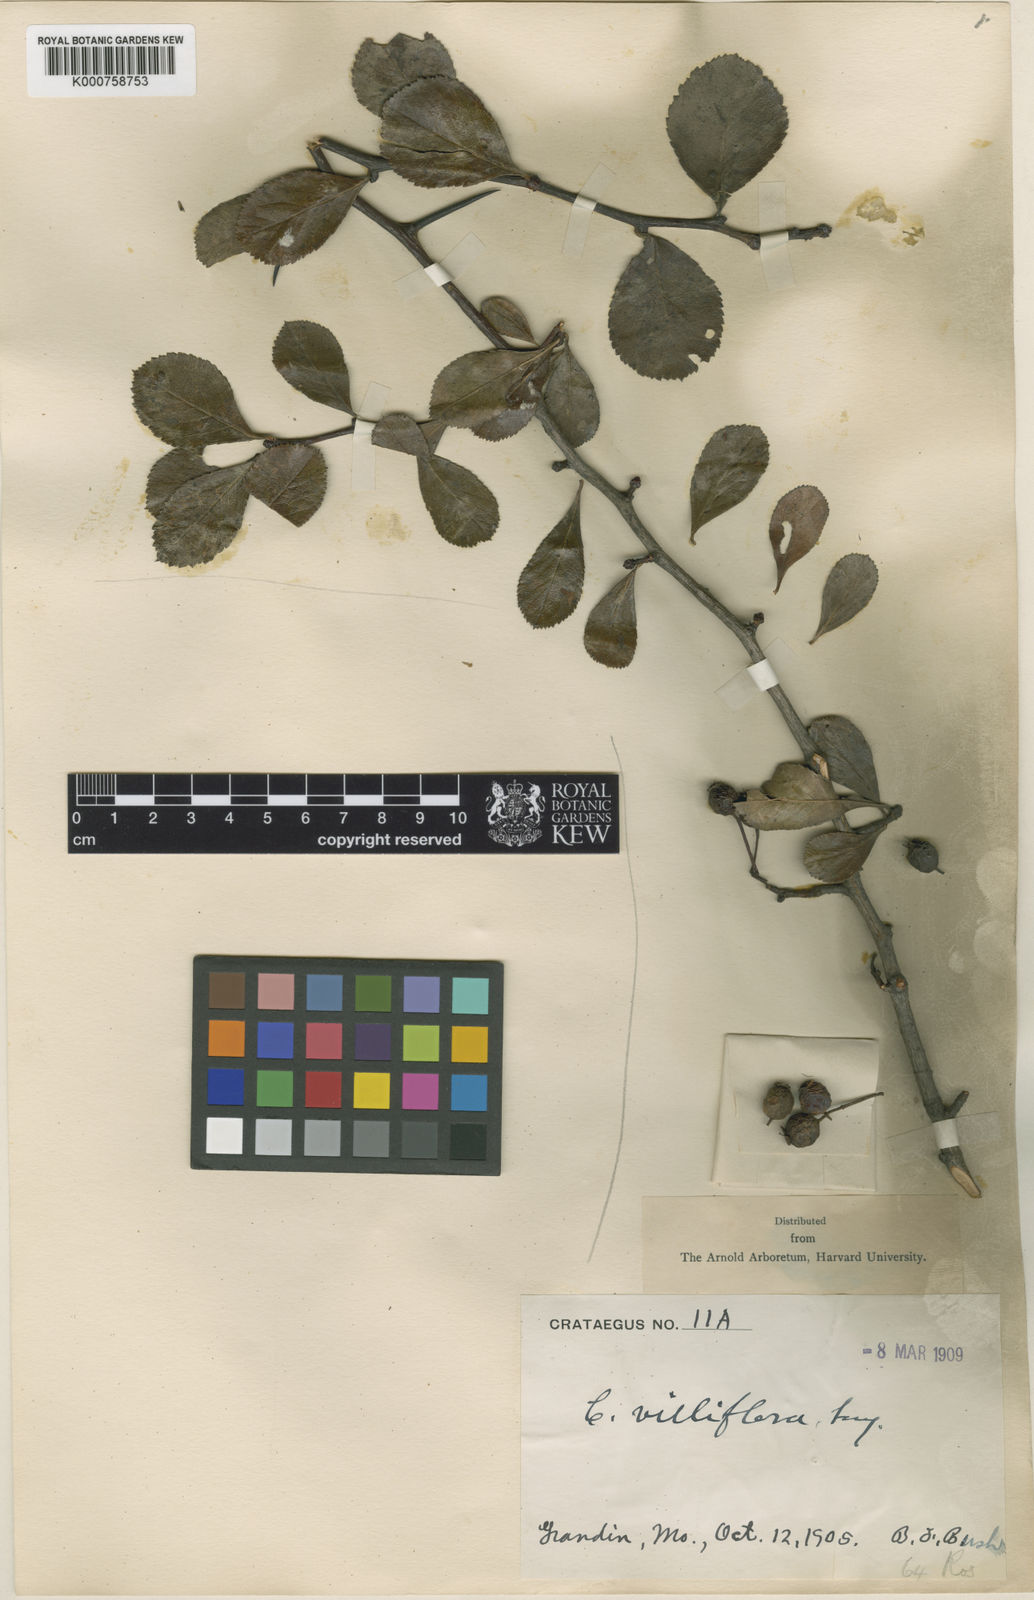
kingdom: Plantae
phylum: Tracheophyta
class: Magnoliopsida
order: Rosales
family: Rosaceae
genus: Crataegus
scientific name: Crataegus villiflora
